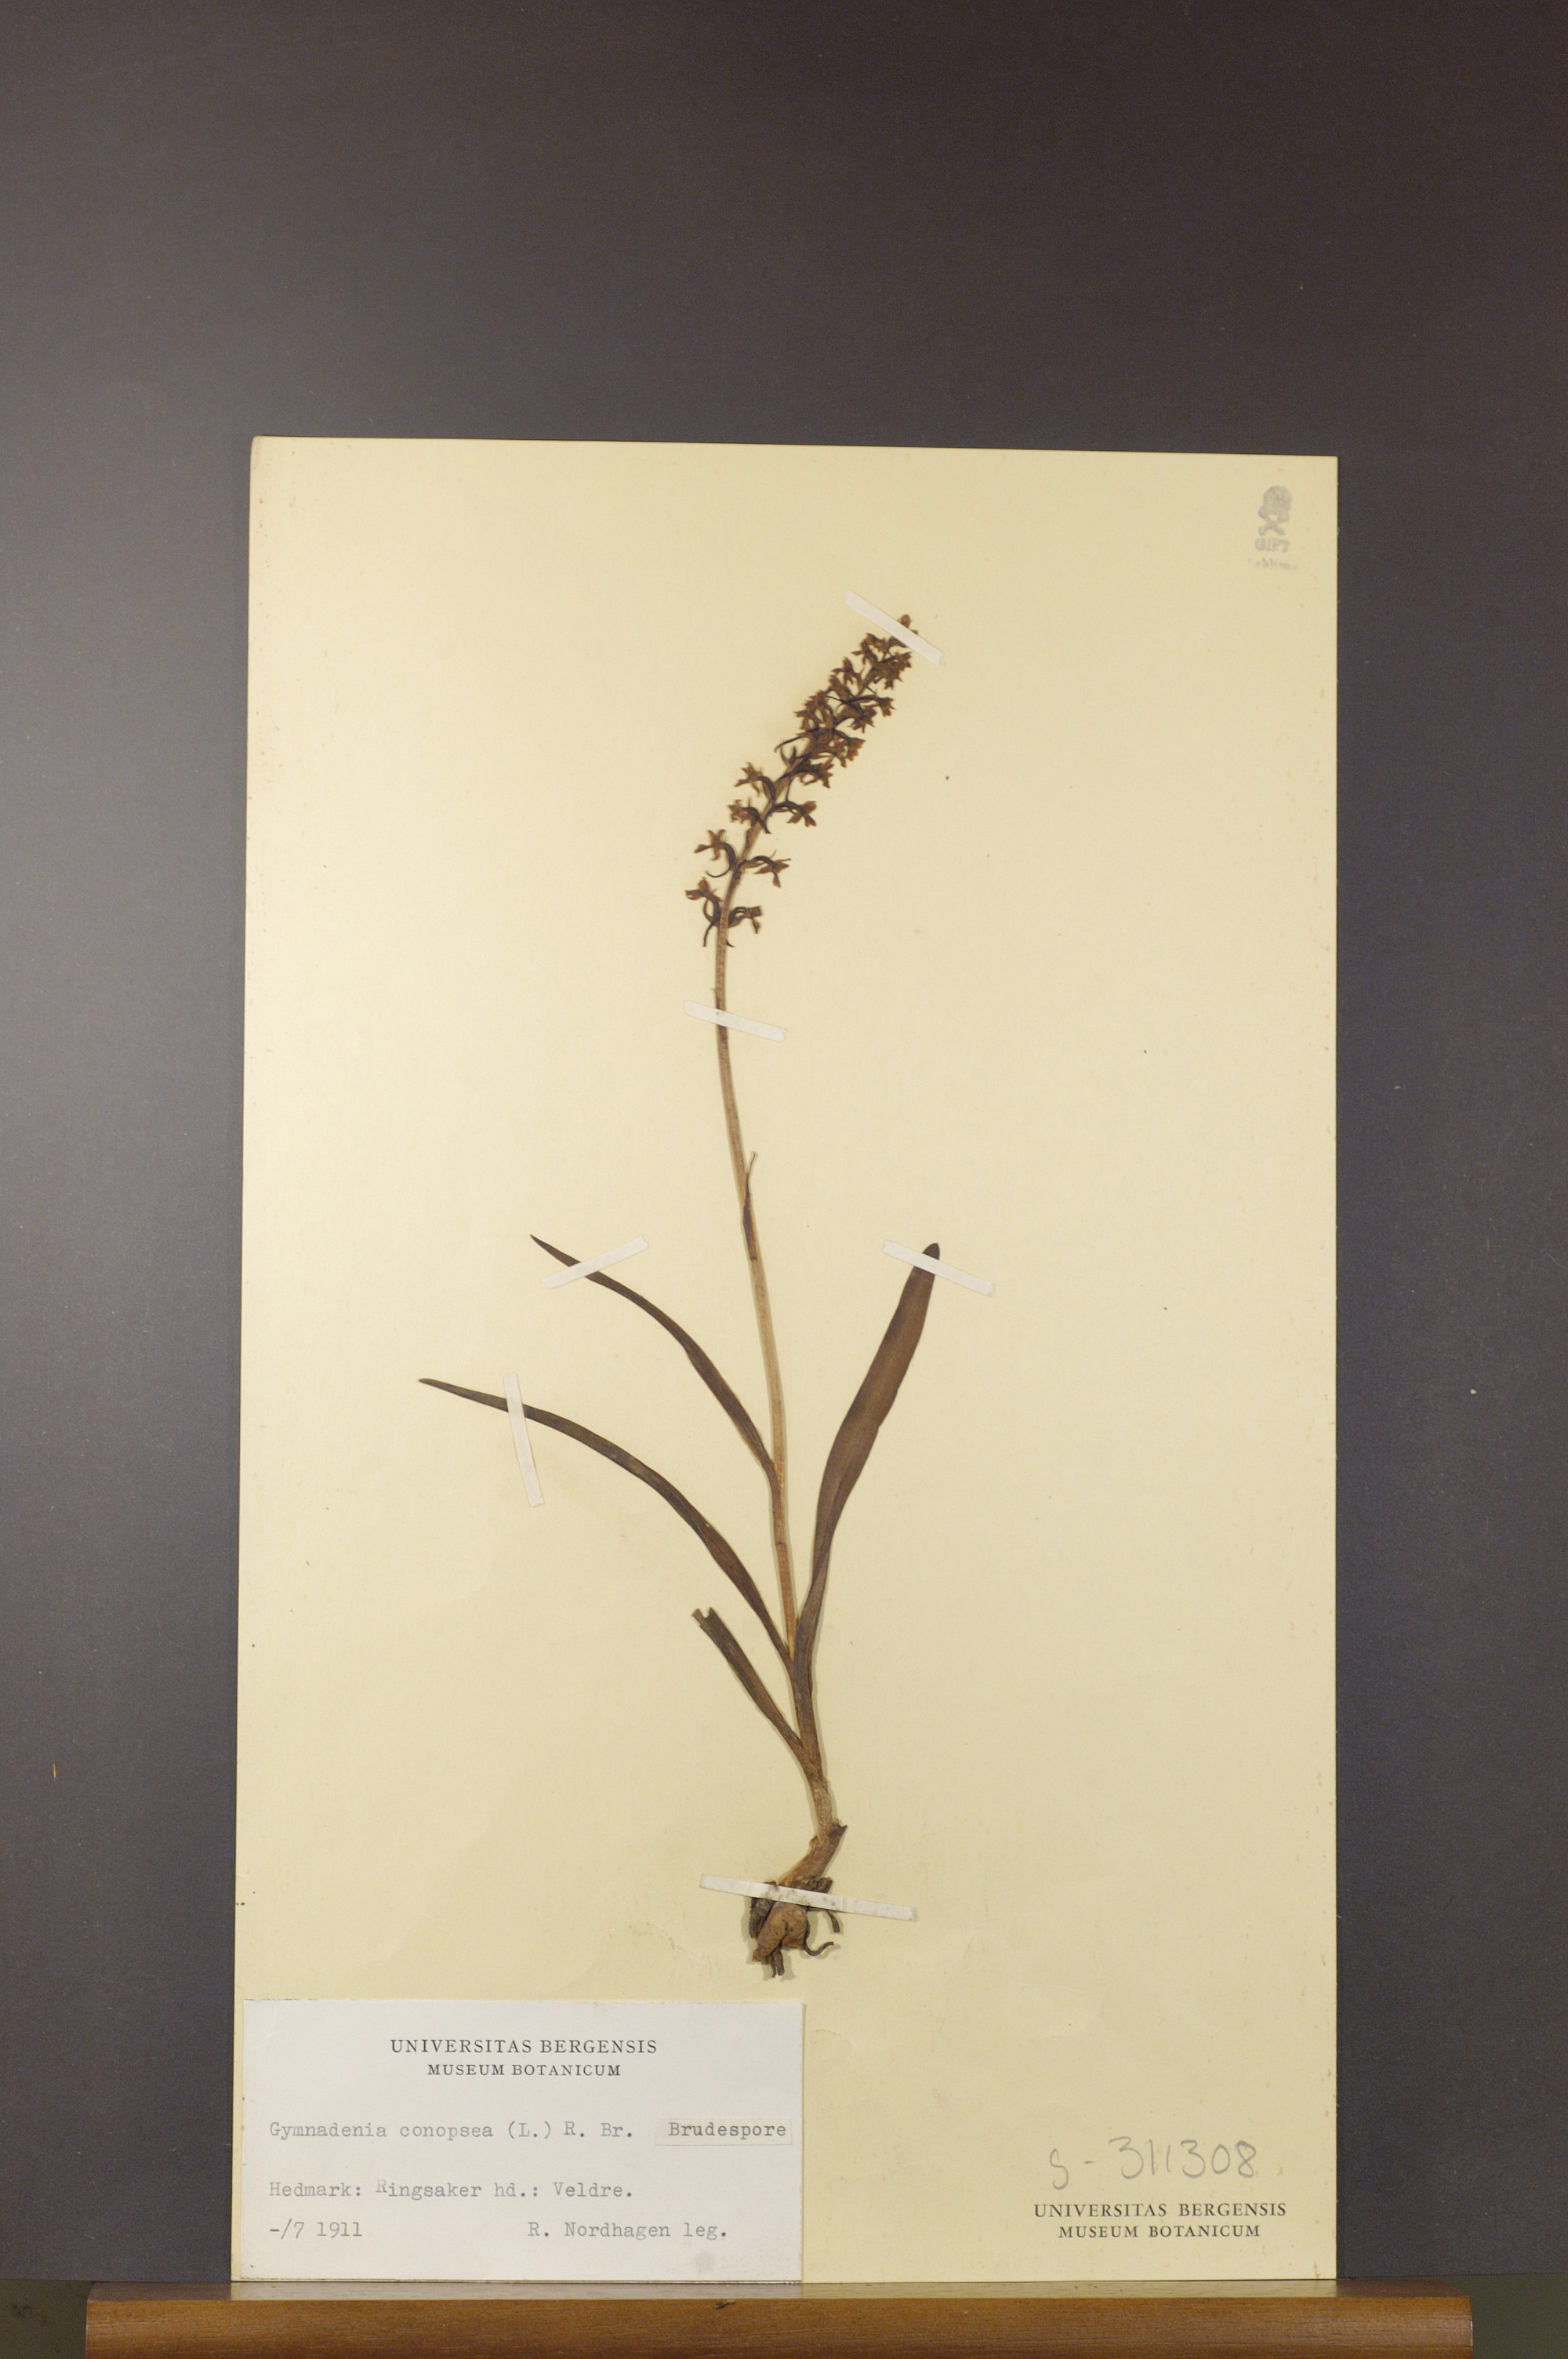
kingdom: Plantae
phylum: Tracheophyta
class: Liliopsida
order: Asparagales
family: Orchidaceae
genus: Gymnadenia
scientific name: Gymnadenia conopsea
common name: Fragrant orchid
